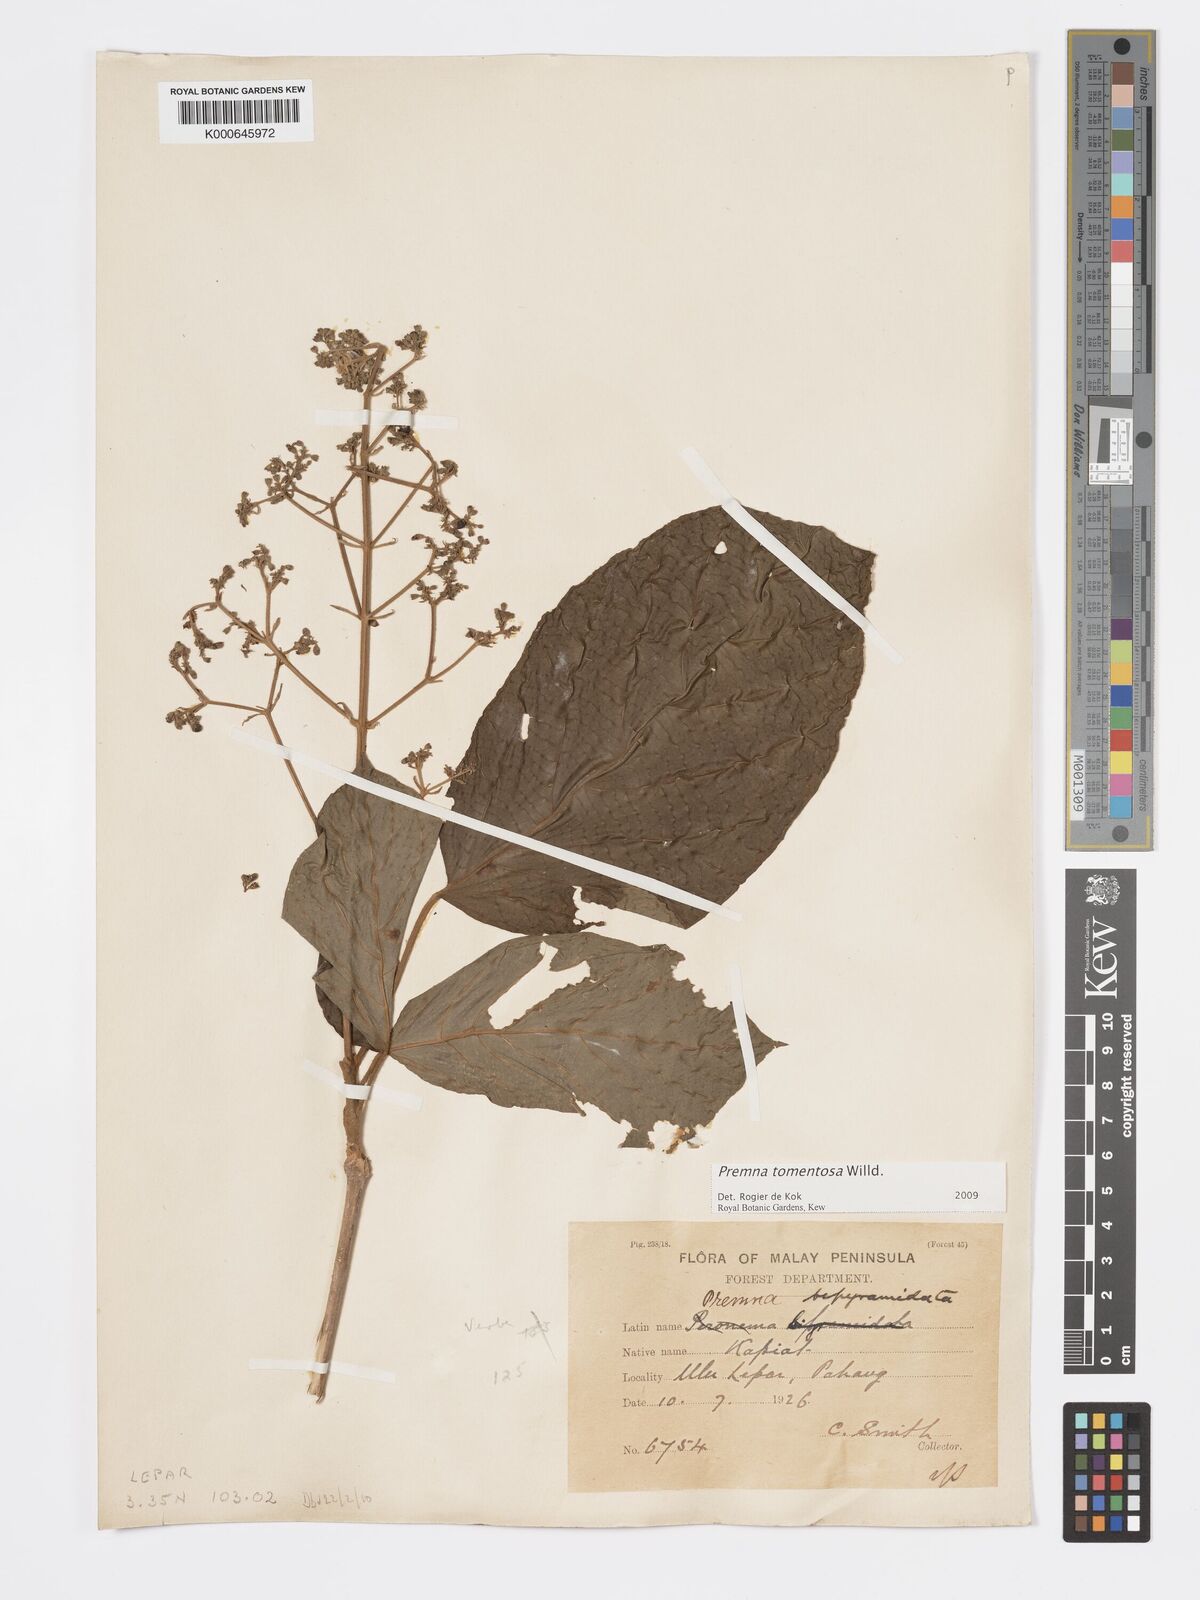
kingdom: Plantae
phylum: Tracheophyta
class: Magnoliopsida
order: Lamiales
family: Lamiaceae
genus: Premna
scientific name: Premna tomentosa
